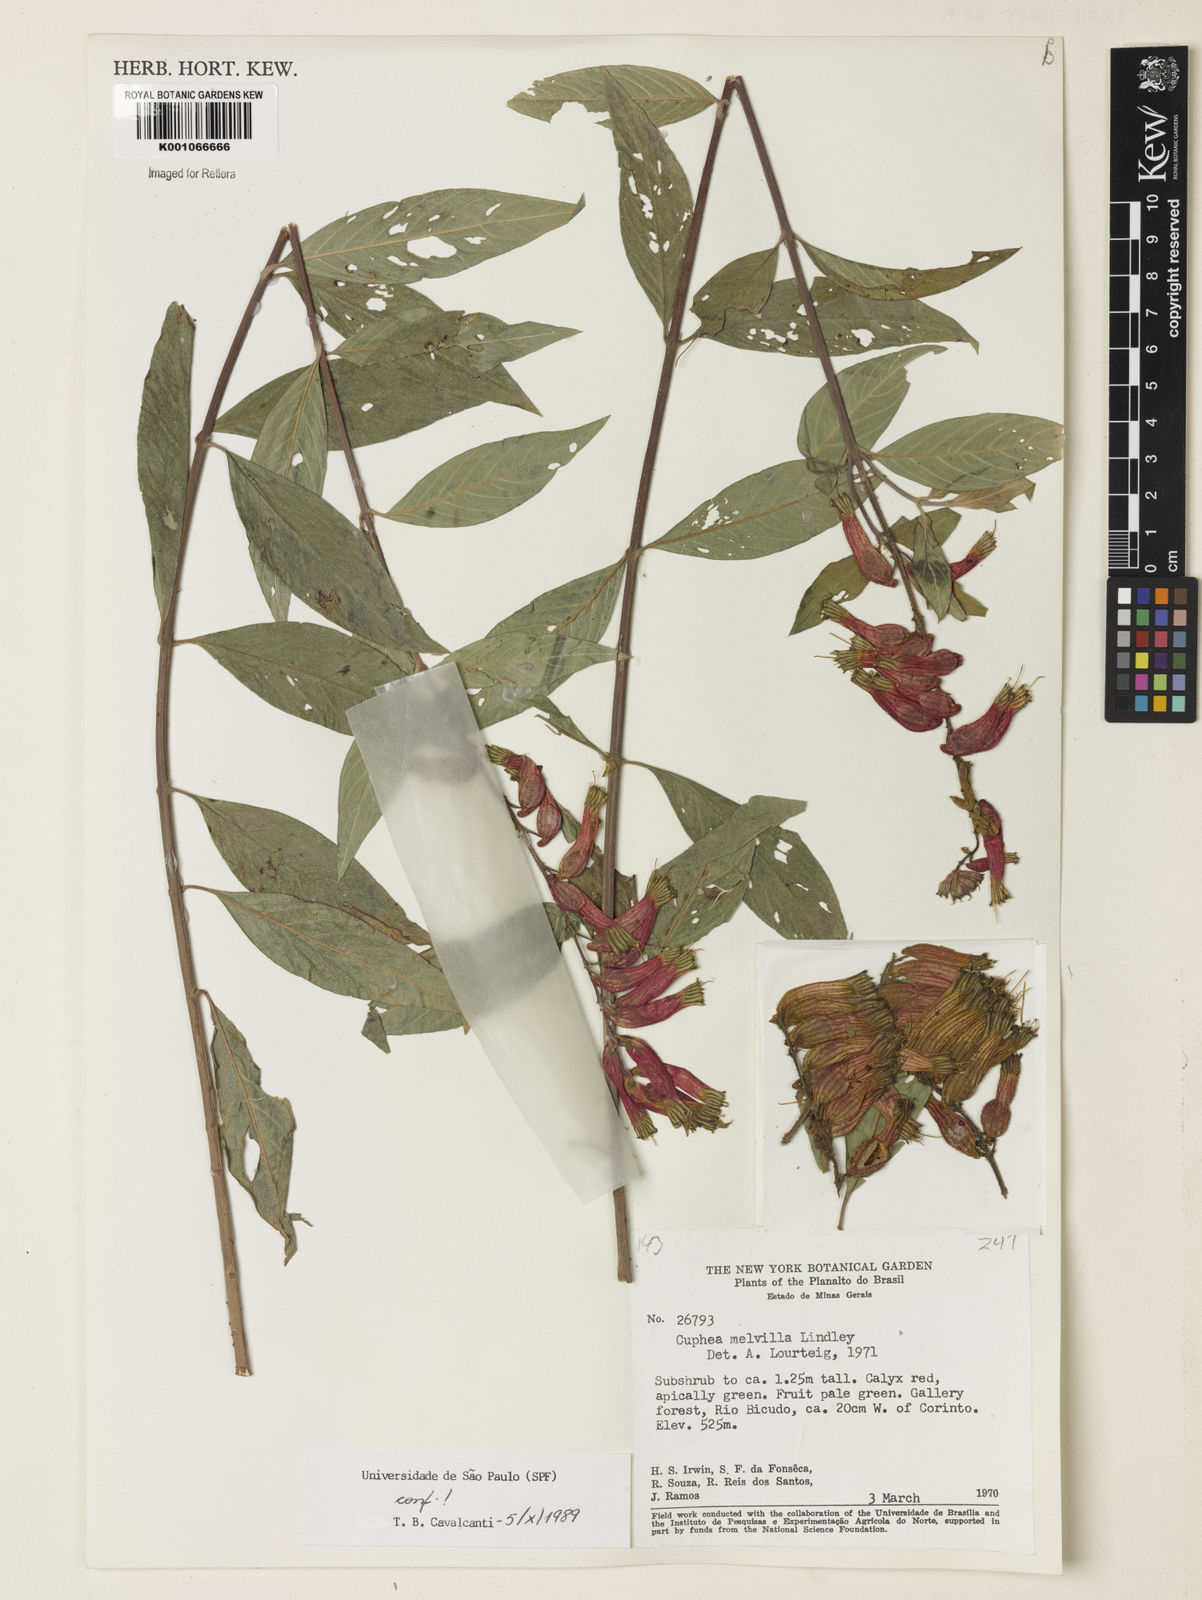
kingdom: Plantae
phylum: Tracheophyta
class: Magnoliopsida
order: Myrtales
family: Lythraceae
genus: Cuphea
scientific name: Cuphea melvilla
